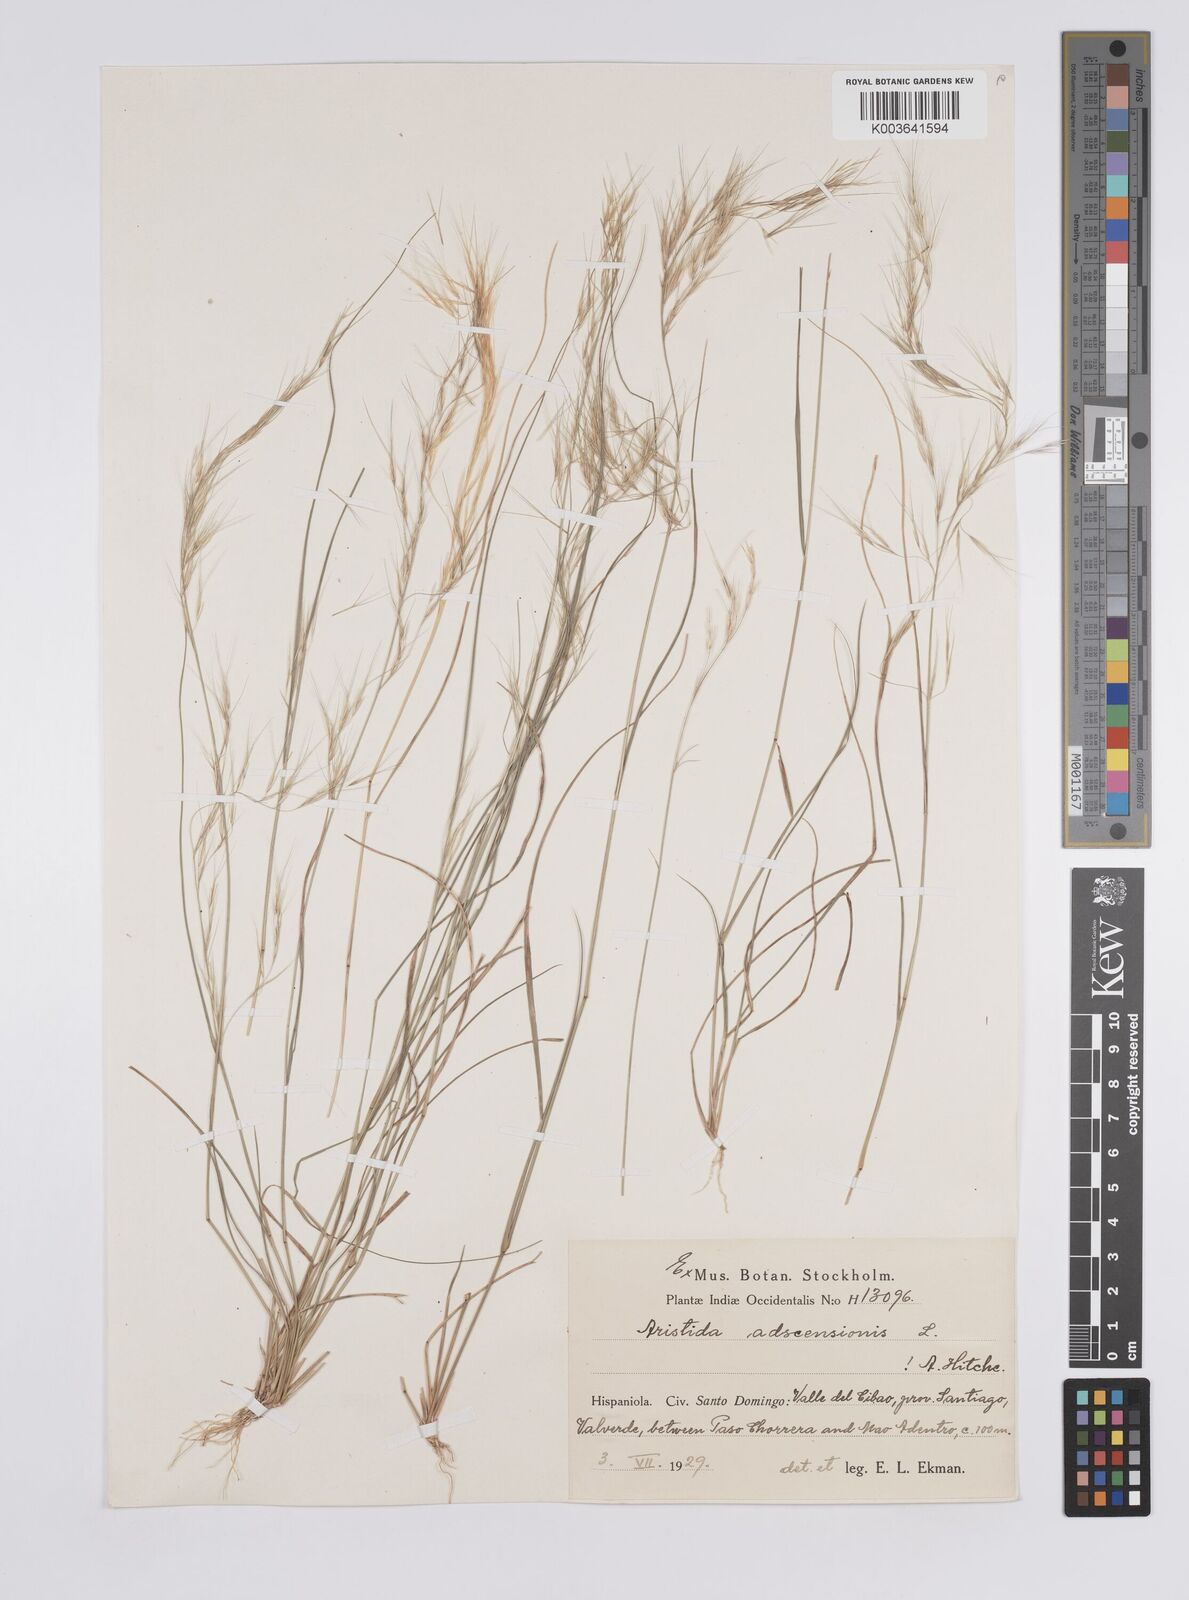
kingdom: Plantae
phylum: Tracheophyta
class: Liliopsida
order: Poales
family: Poaceae
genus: Aristida
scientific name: Aristida adscensionis
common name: Sixweeks threeawn
